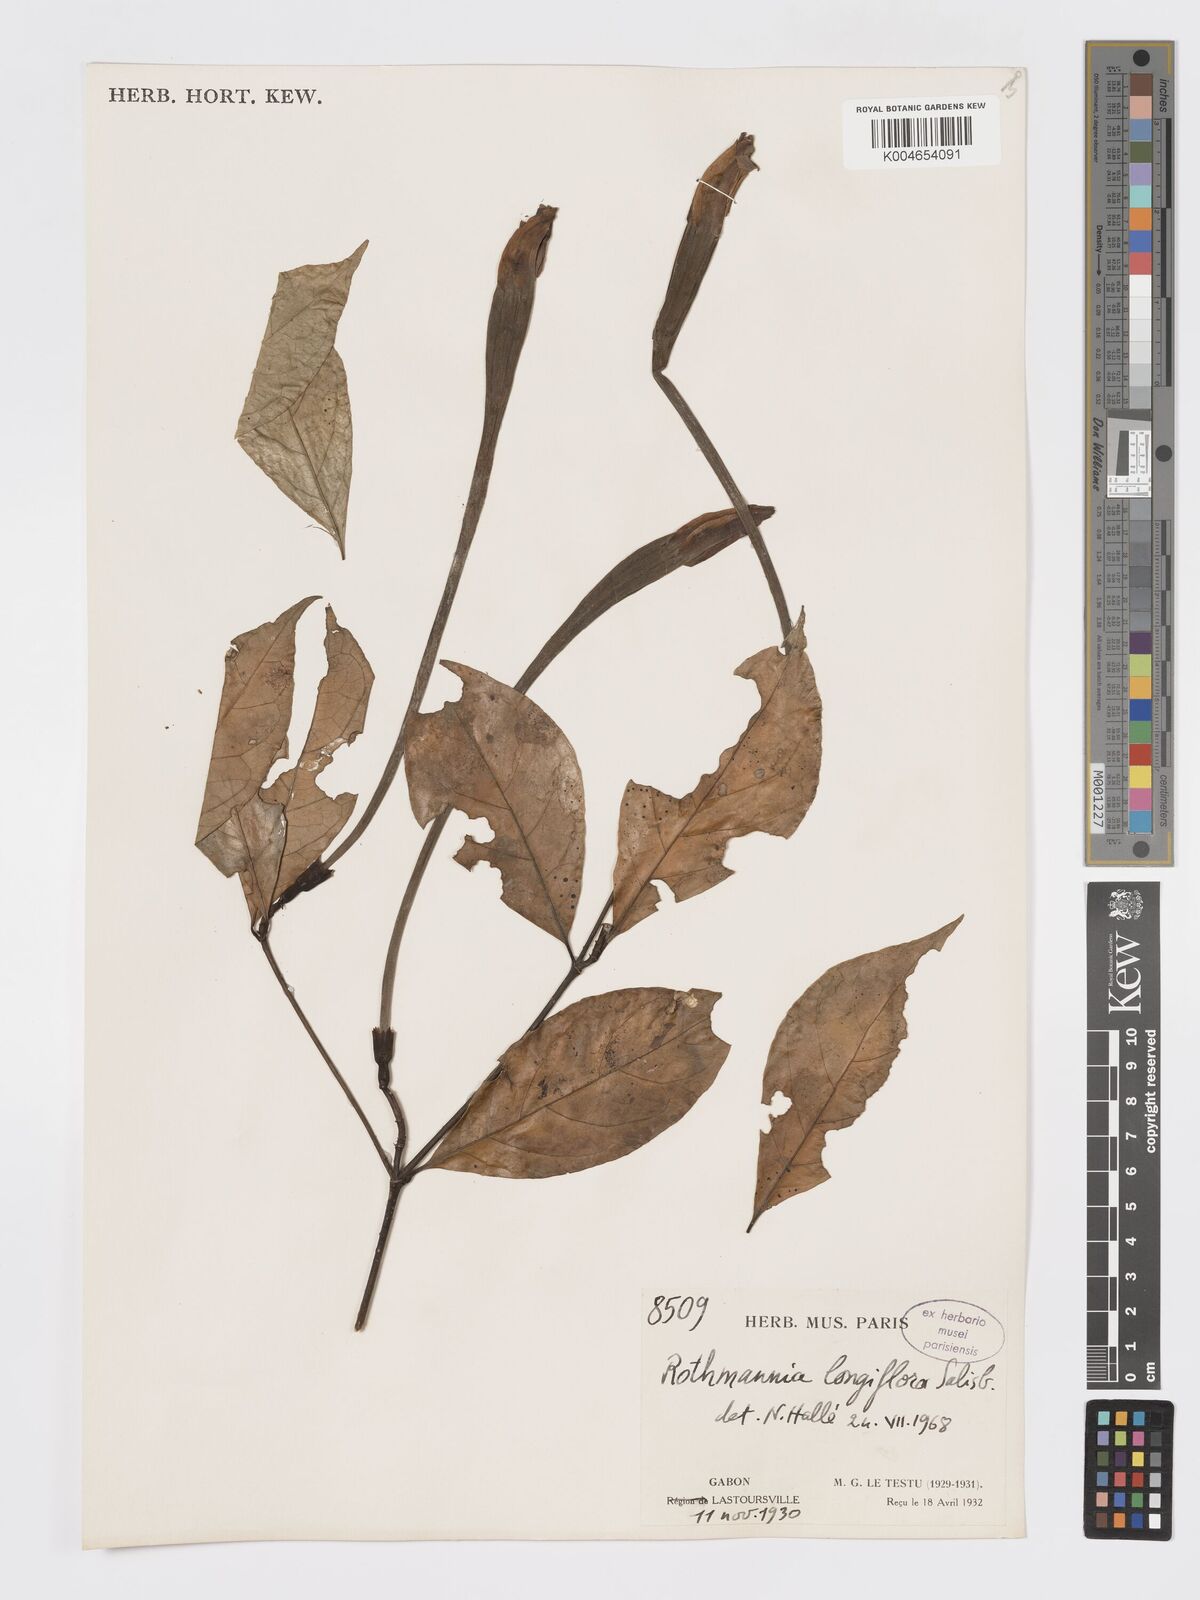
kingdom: Plantae
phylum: Tracheophyta
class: Magnoliopsida
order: Gentianales
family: Rubiaceae
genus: Rothmannia
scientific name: Rothmannia longiflora
